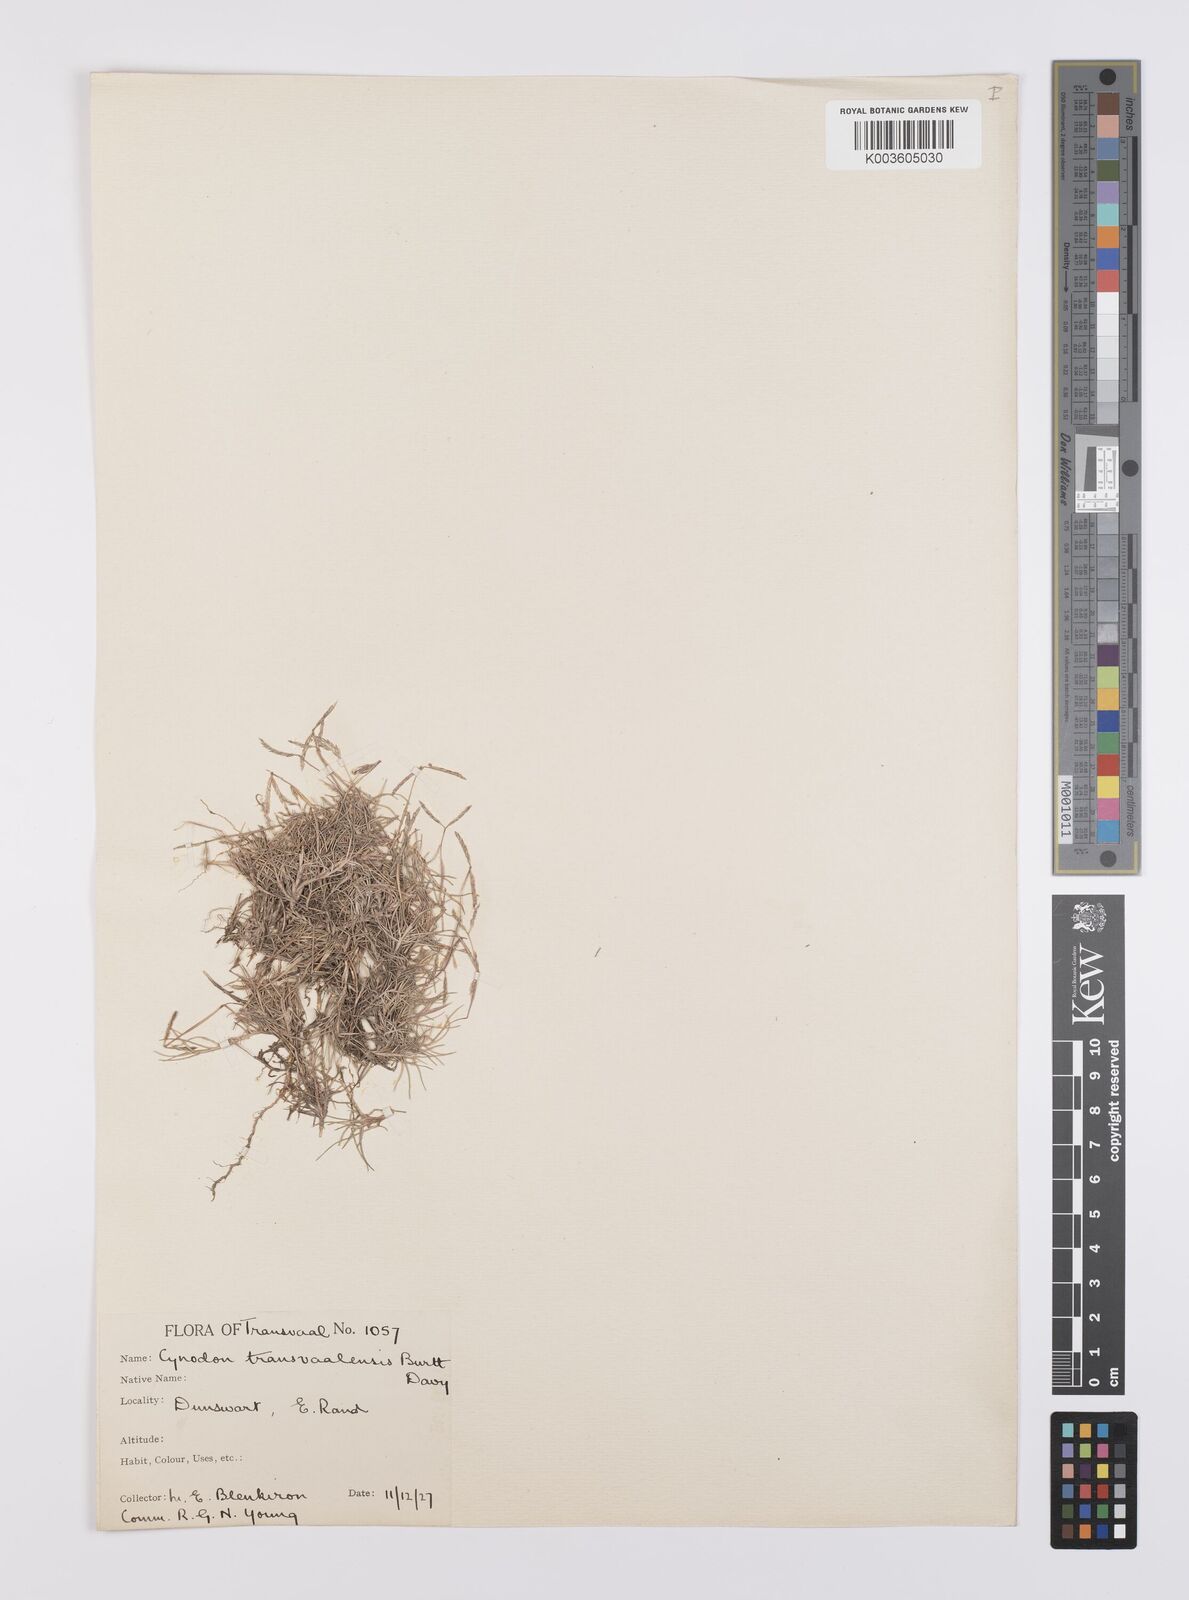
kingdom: Plantae
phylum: Tracheophyta
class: Liliopsida
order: Poales
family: Poaceae
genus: Cynodon
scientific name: Cynodon transvaalensis
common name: African bermuda grass
